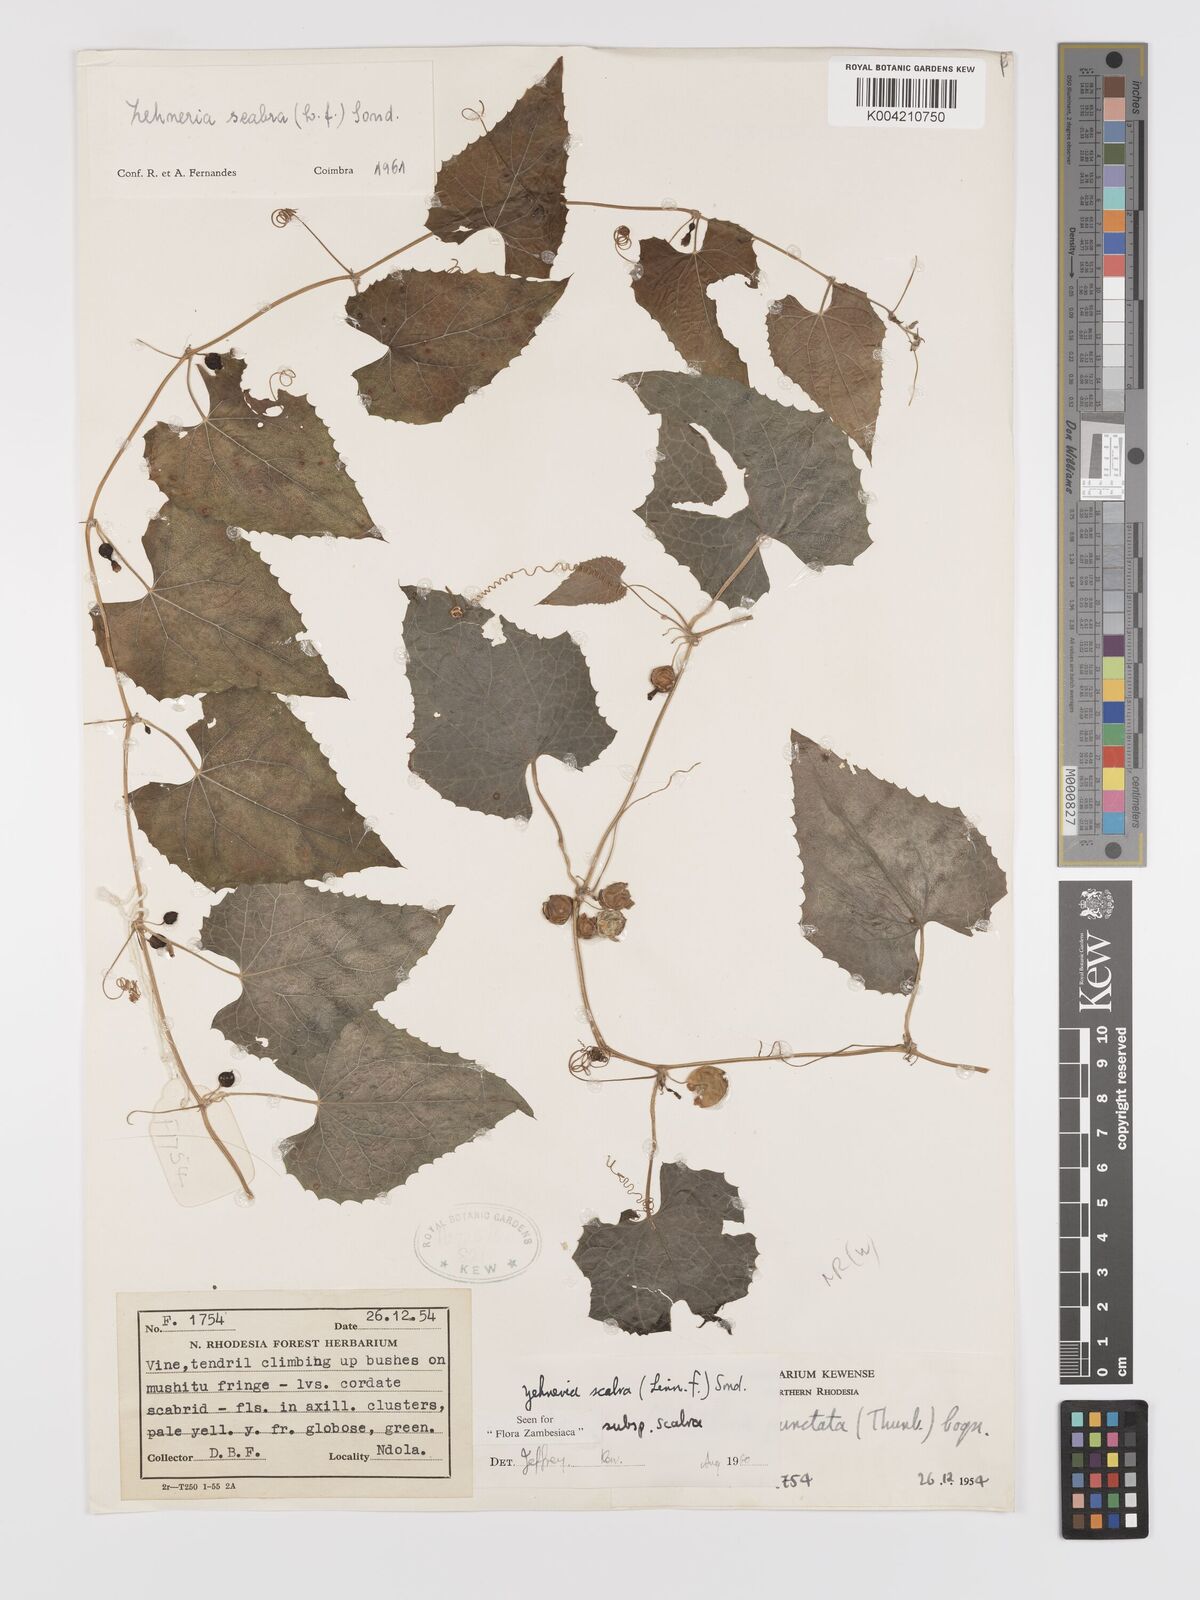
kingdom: Plantae
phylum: Tracheophyta
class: Magnoliopsida
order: Cucurbitales
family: Cucurbitaceae
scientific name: Cucurbitaceae
